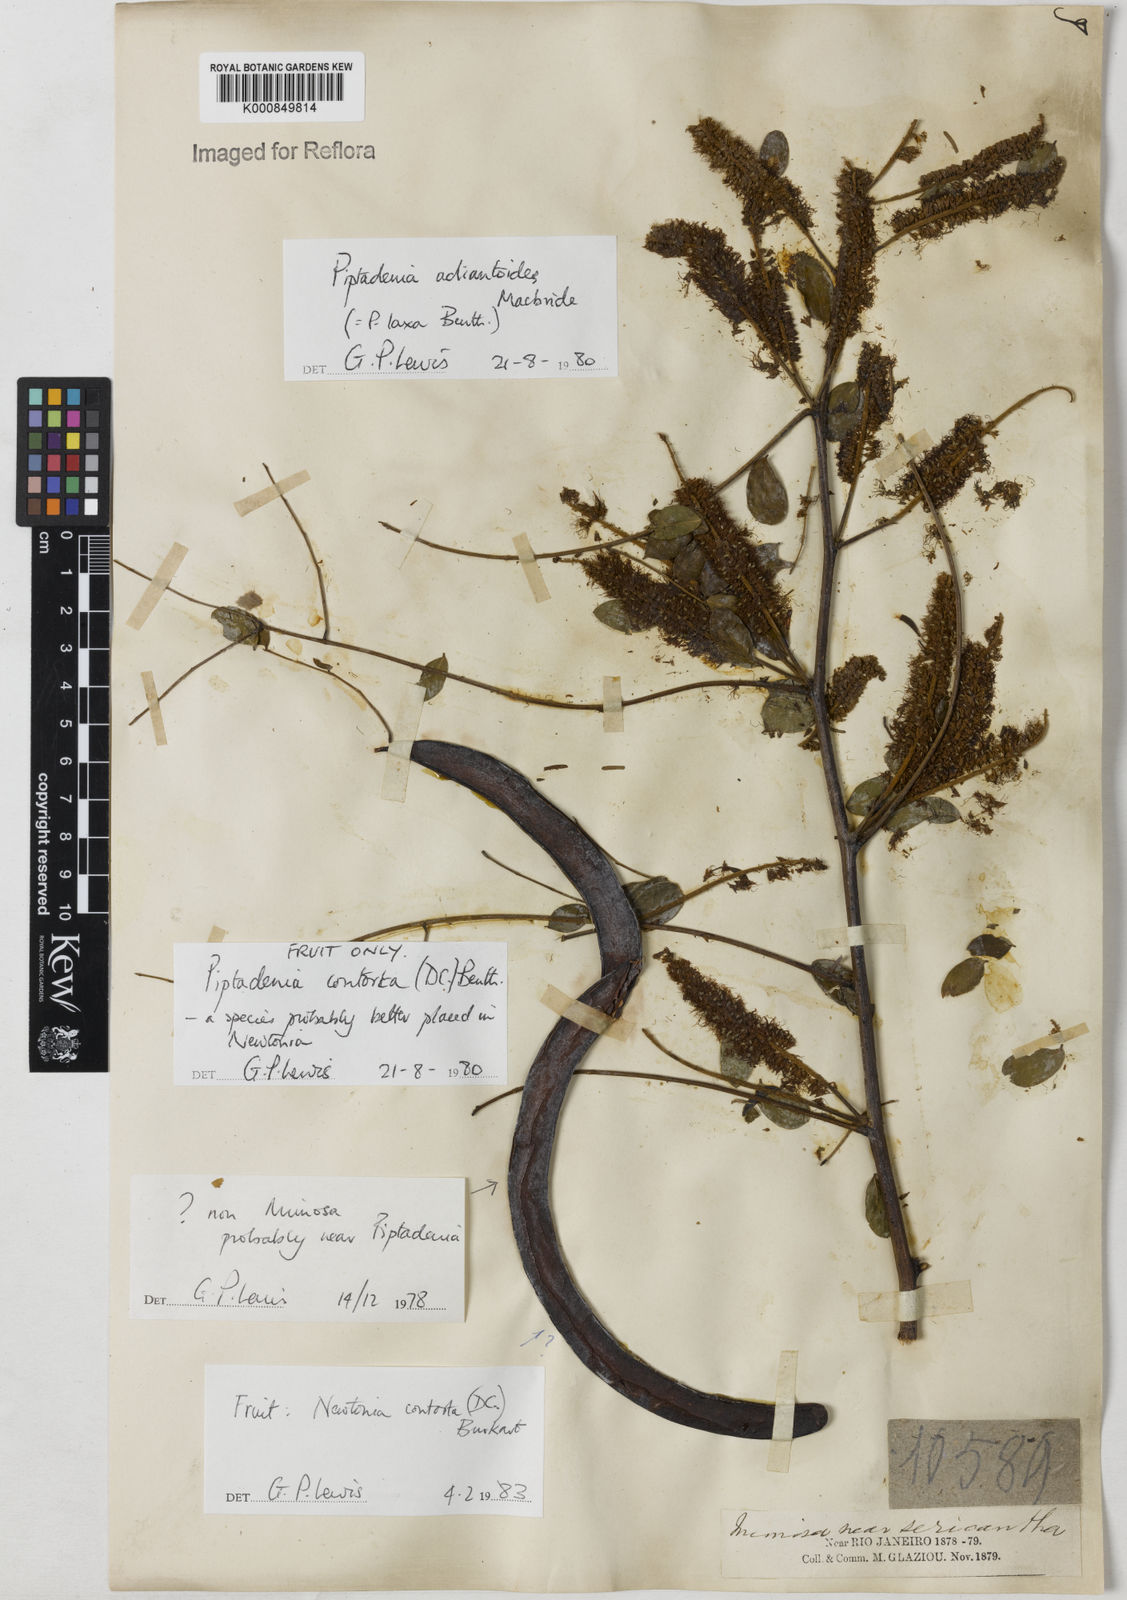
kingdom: Plantae
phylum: Tracheophyta
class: Magnoliopsida
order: Fabales
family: Fabaceae
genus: Piptadenia
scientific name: Piptadenia adiantoides
